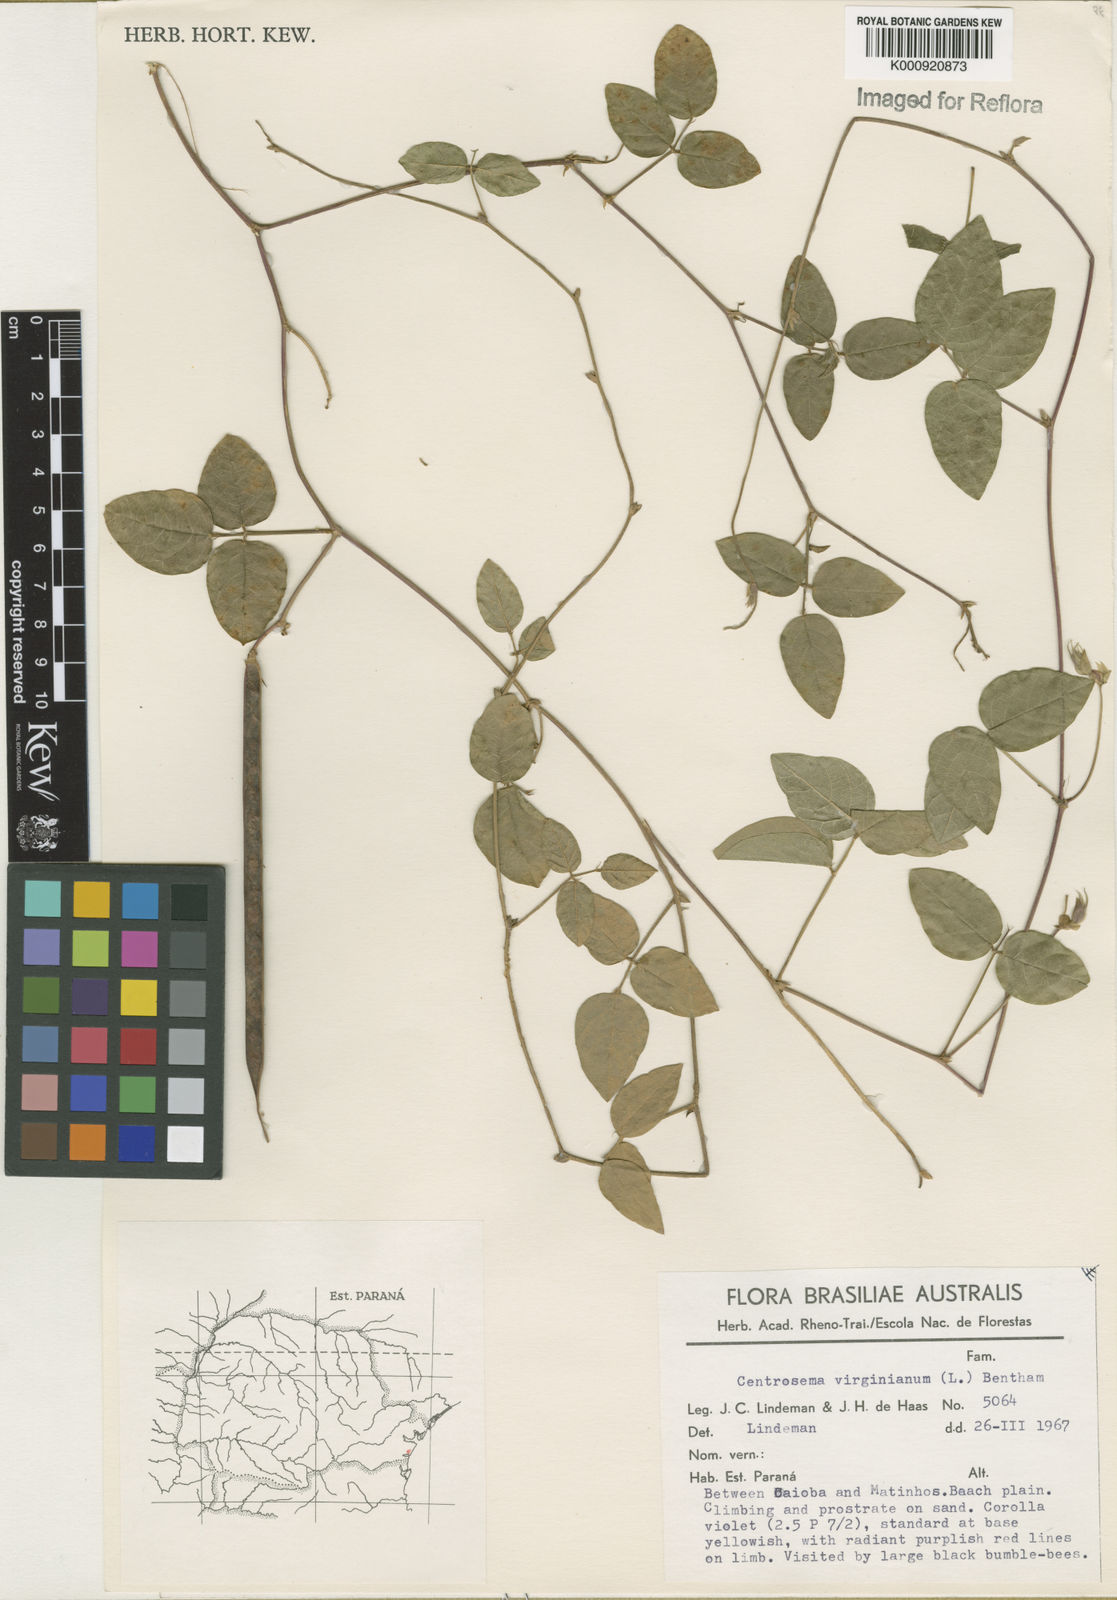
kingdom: Plantae
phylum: Tracheophyta
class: Magnoliopsida
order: Fabales
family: Fabaceae
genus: Centrosema
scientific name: Centrosema virginianum
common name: Butterfly-pea
